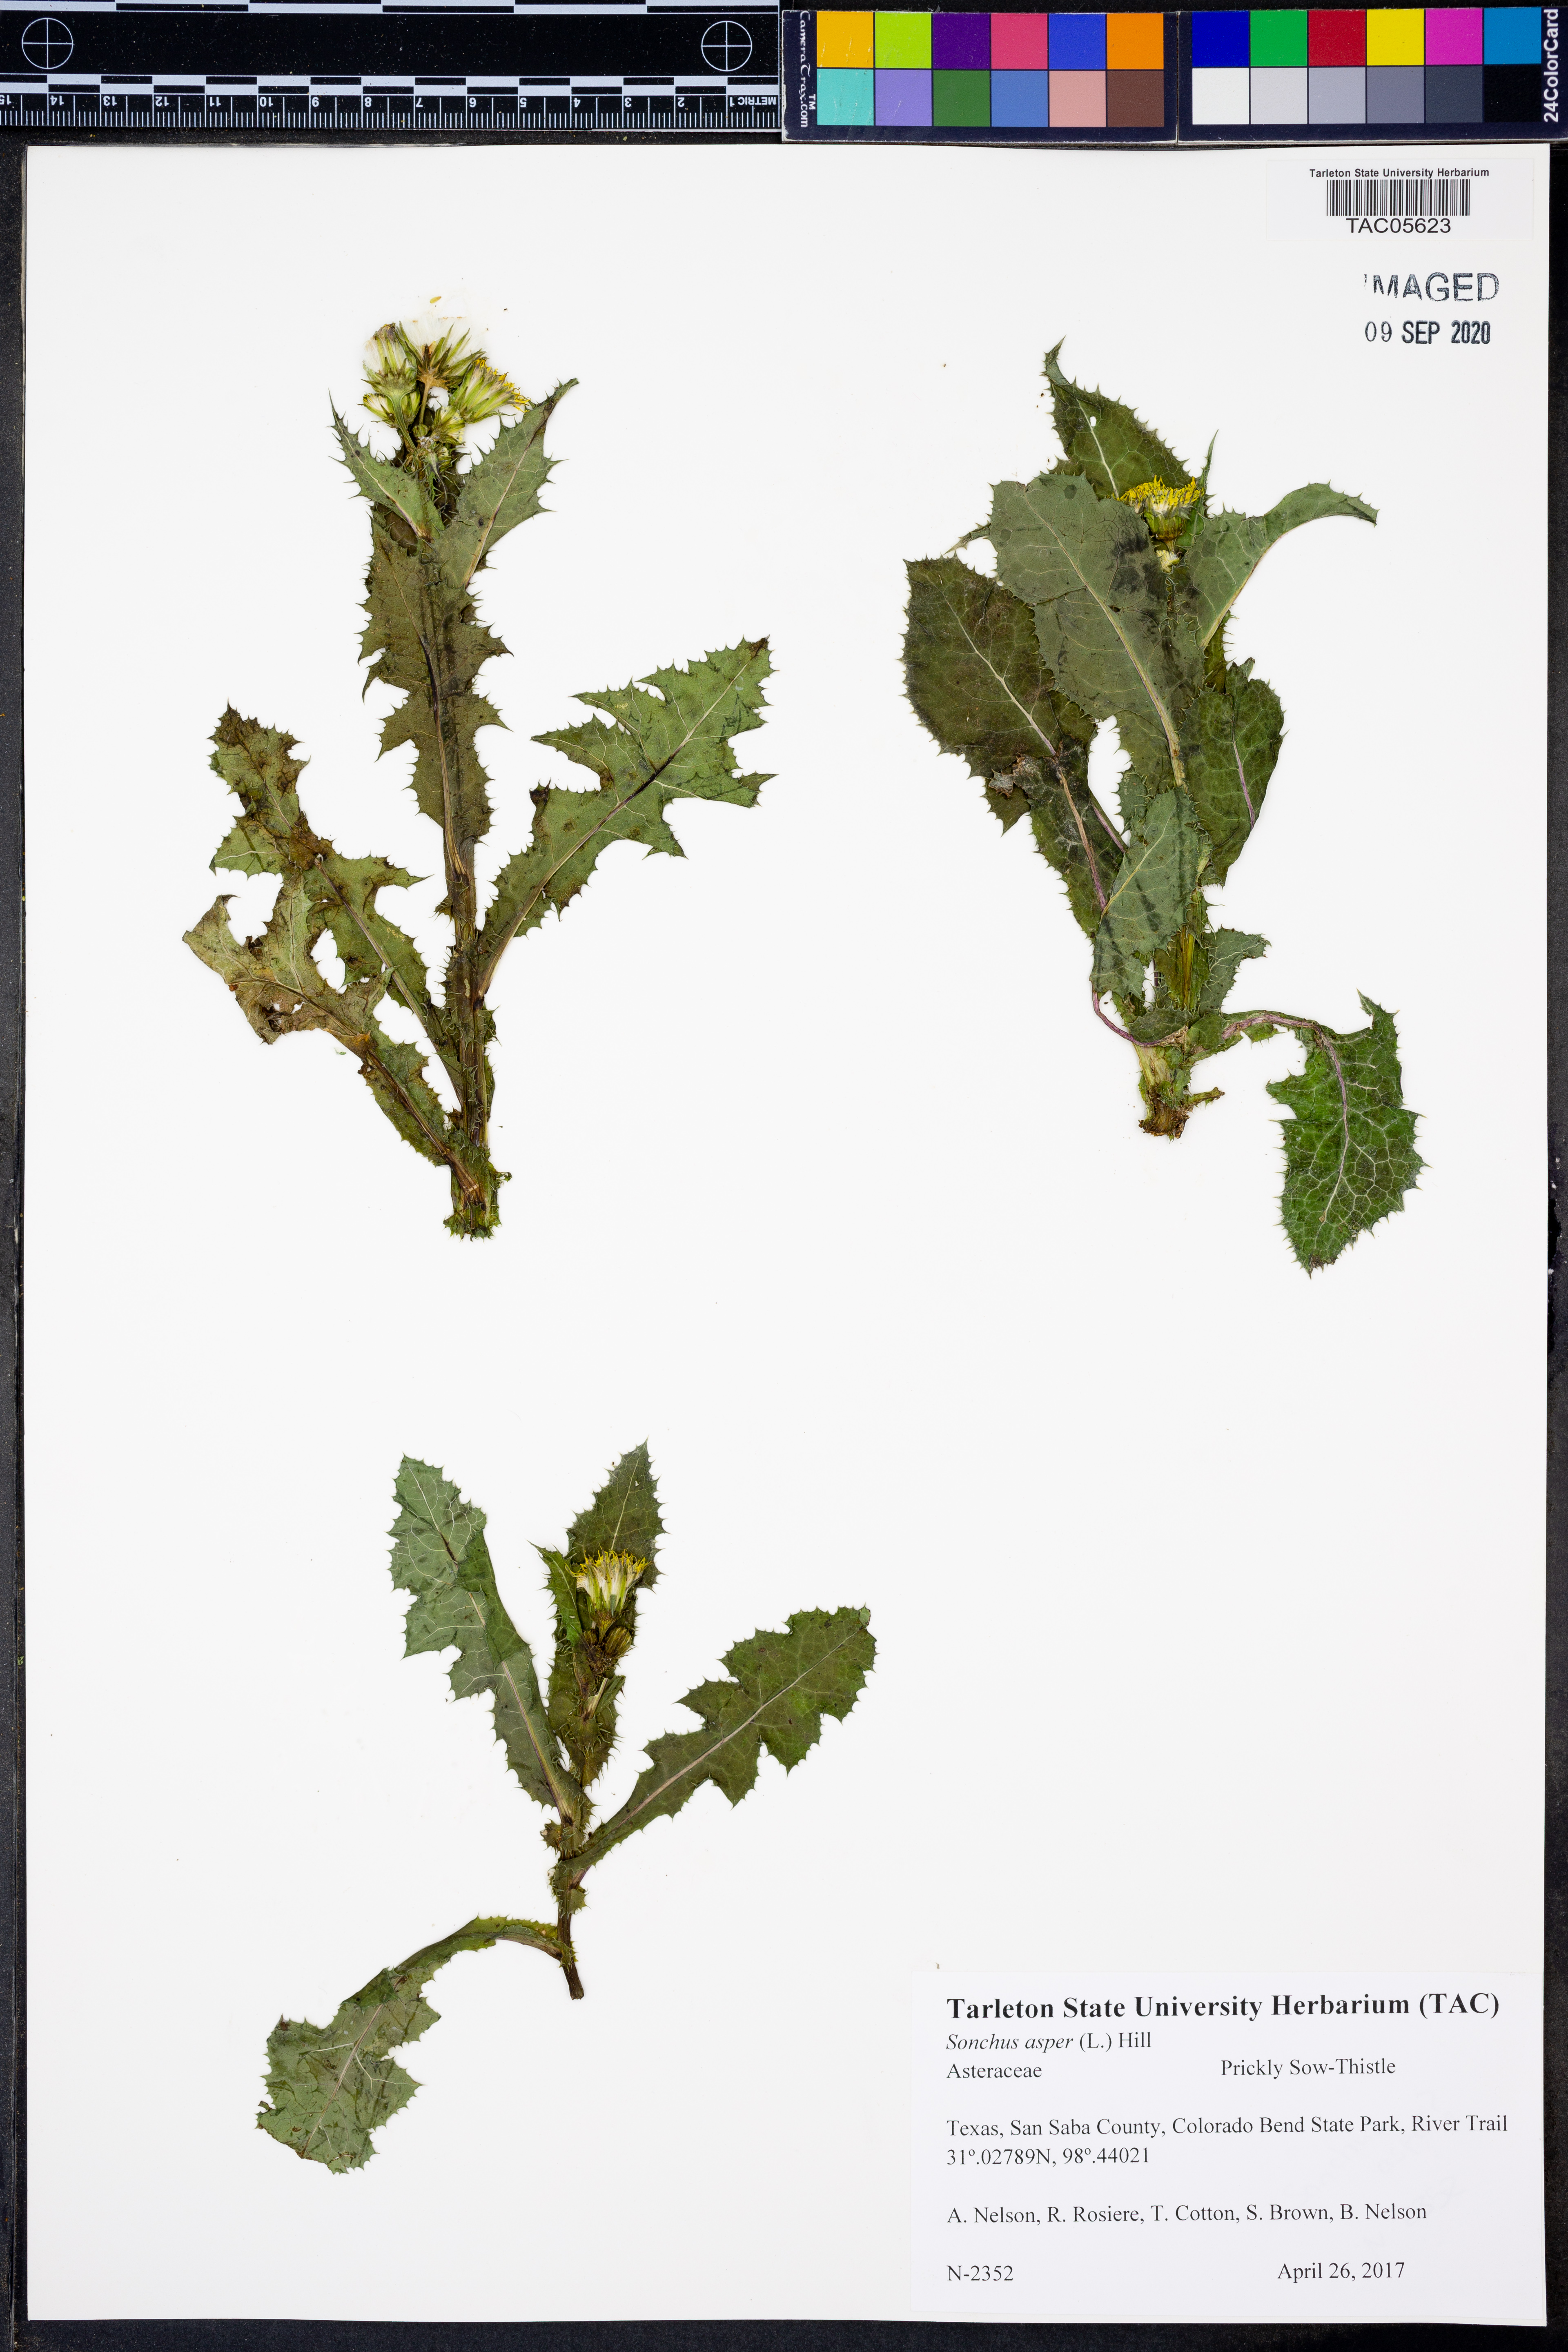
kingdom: Plantae
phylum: Tracheophyta
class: Magnoliopsida
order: Asterales
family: Asteraceae
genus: Sonchus
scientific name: Sonchus asper
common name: Prickly sow-thistle
